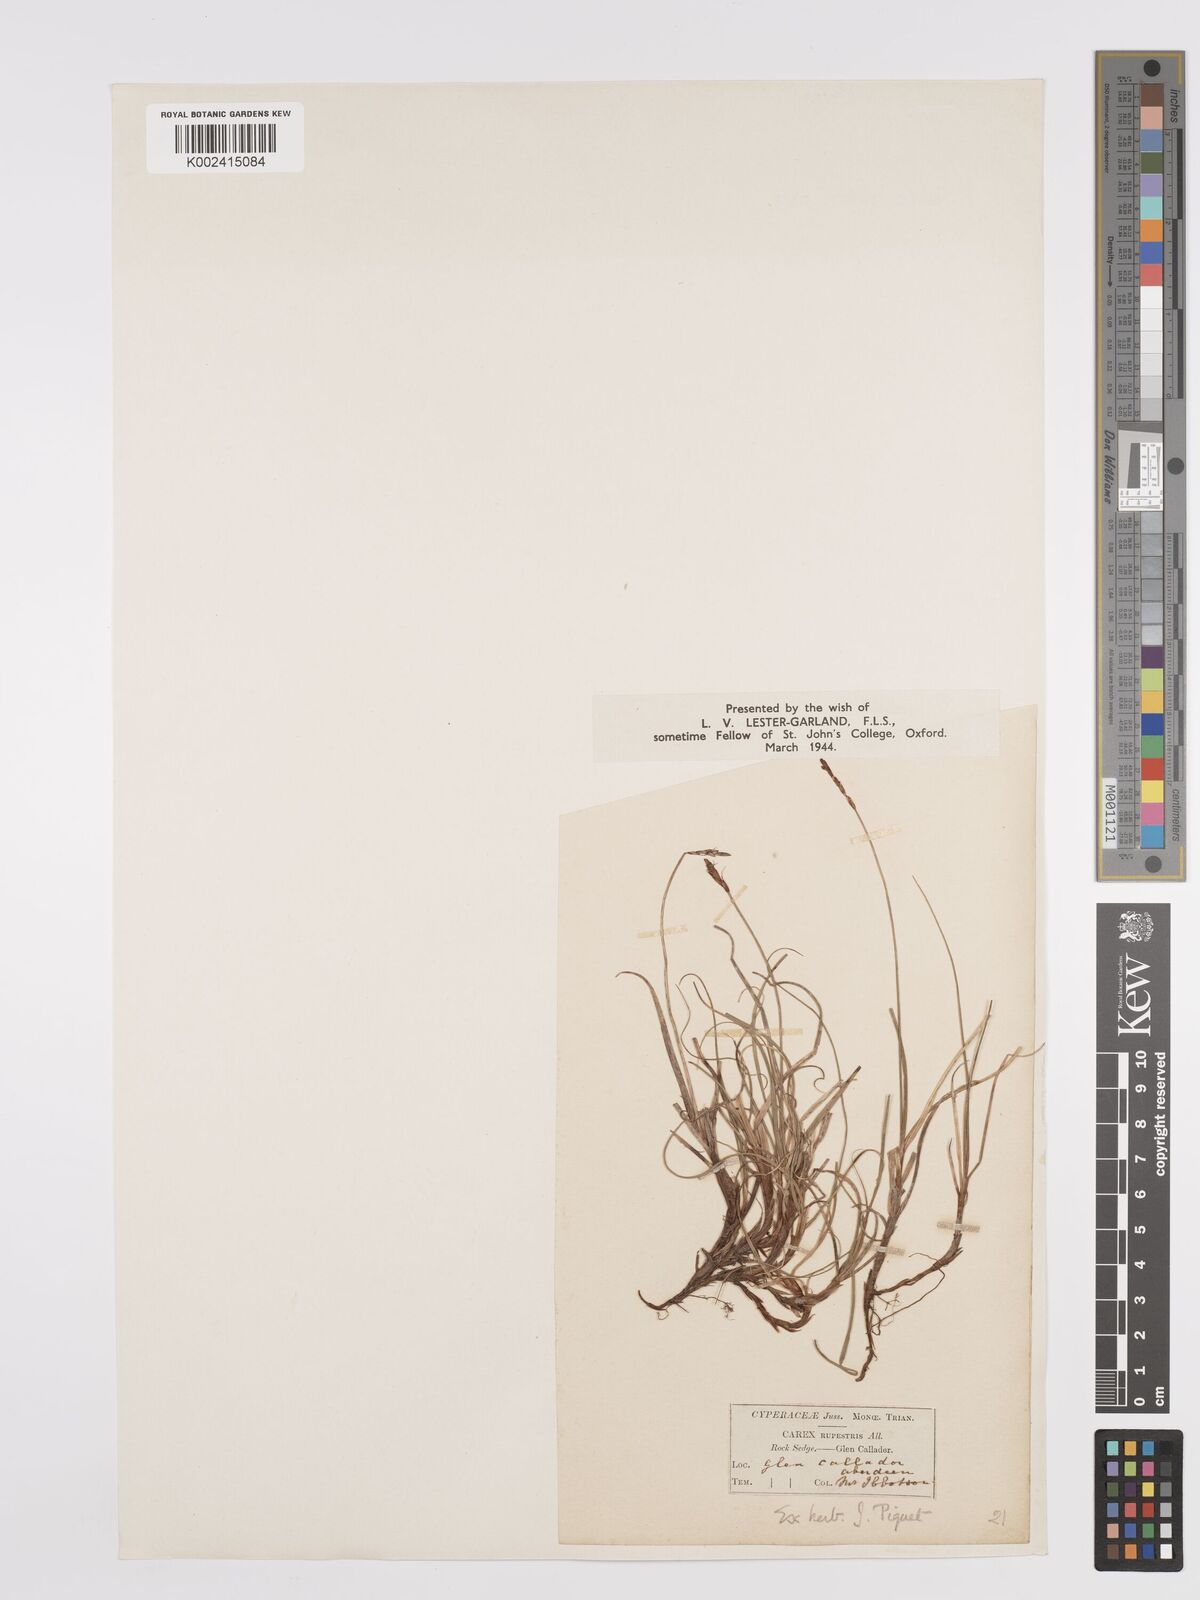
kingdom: Plantae
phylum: Tracheophyta
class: Liliopsida
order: Poales
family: Cyperaceae
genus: Carex
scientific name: Carex rupestris
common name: Rock sedge
